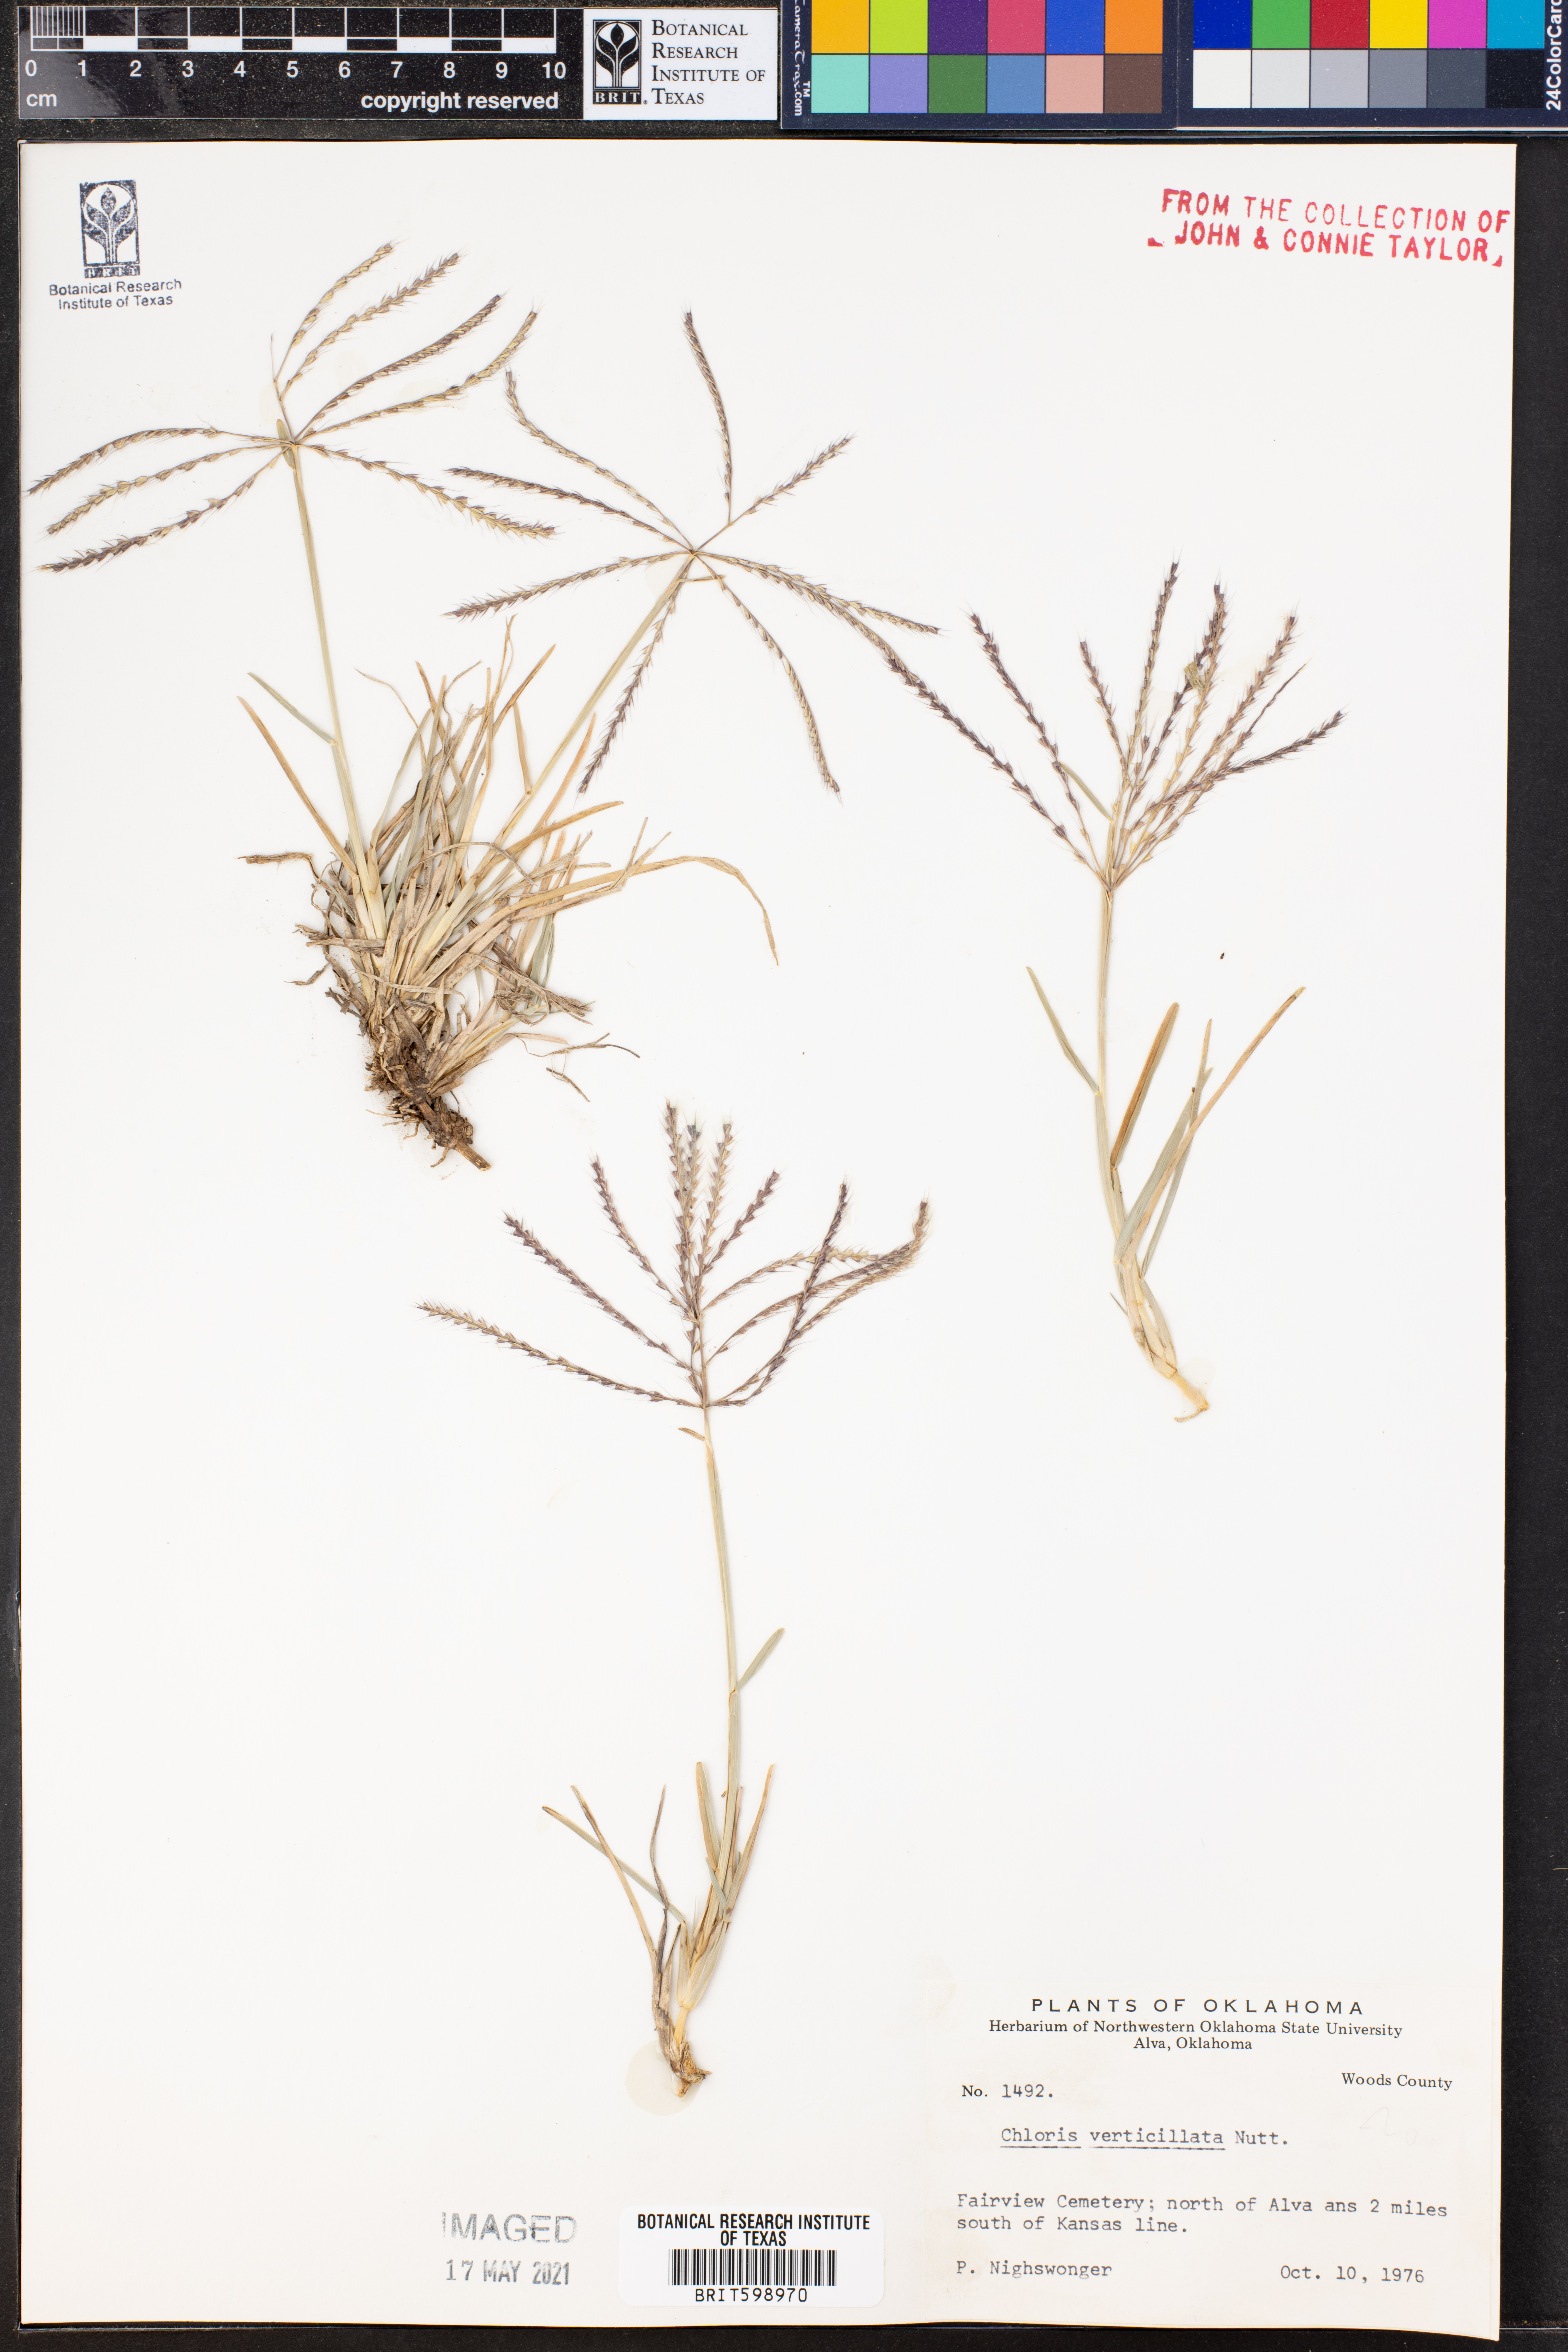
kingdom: Plantae
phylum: Tracheophyta
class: Liliopsida
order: Poales
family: Poaceae
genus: Chloris
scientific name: Chloris verticillata
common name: Tumble windmill grass
